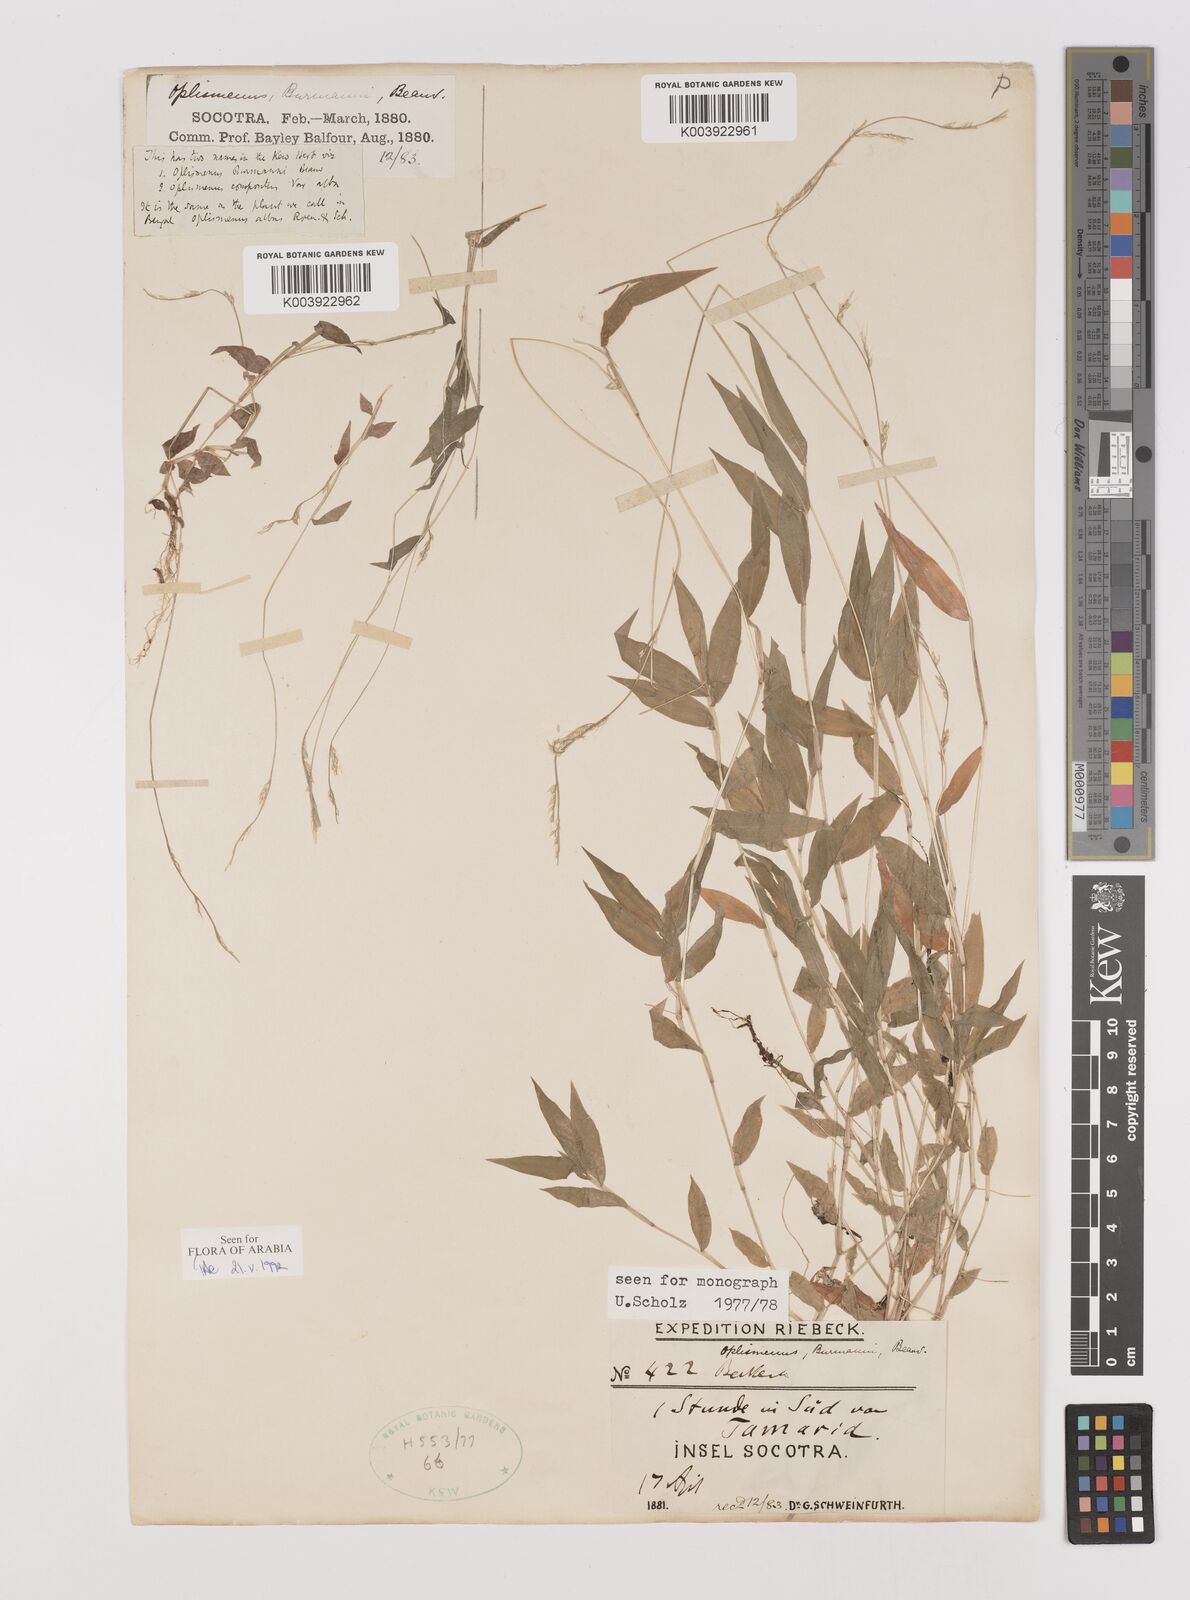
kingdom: Plantae
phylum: Tracheophyta
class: Liliopsida
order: Poales
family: Poaceae
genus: Oplismenus
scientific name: Oplismenus burmanni
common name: Burmann's basketgrass
